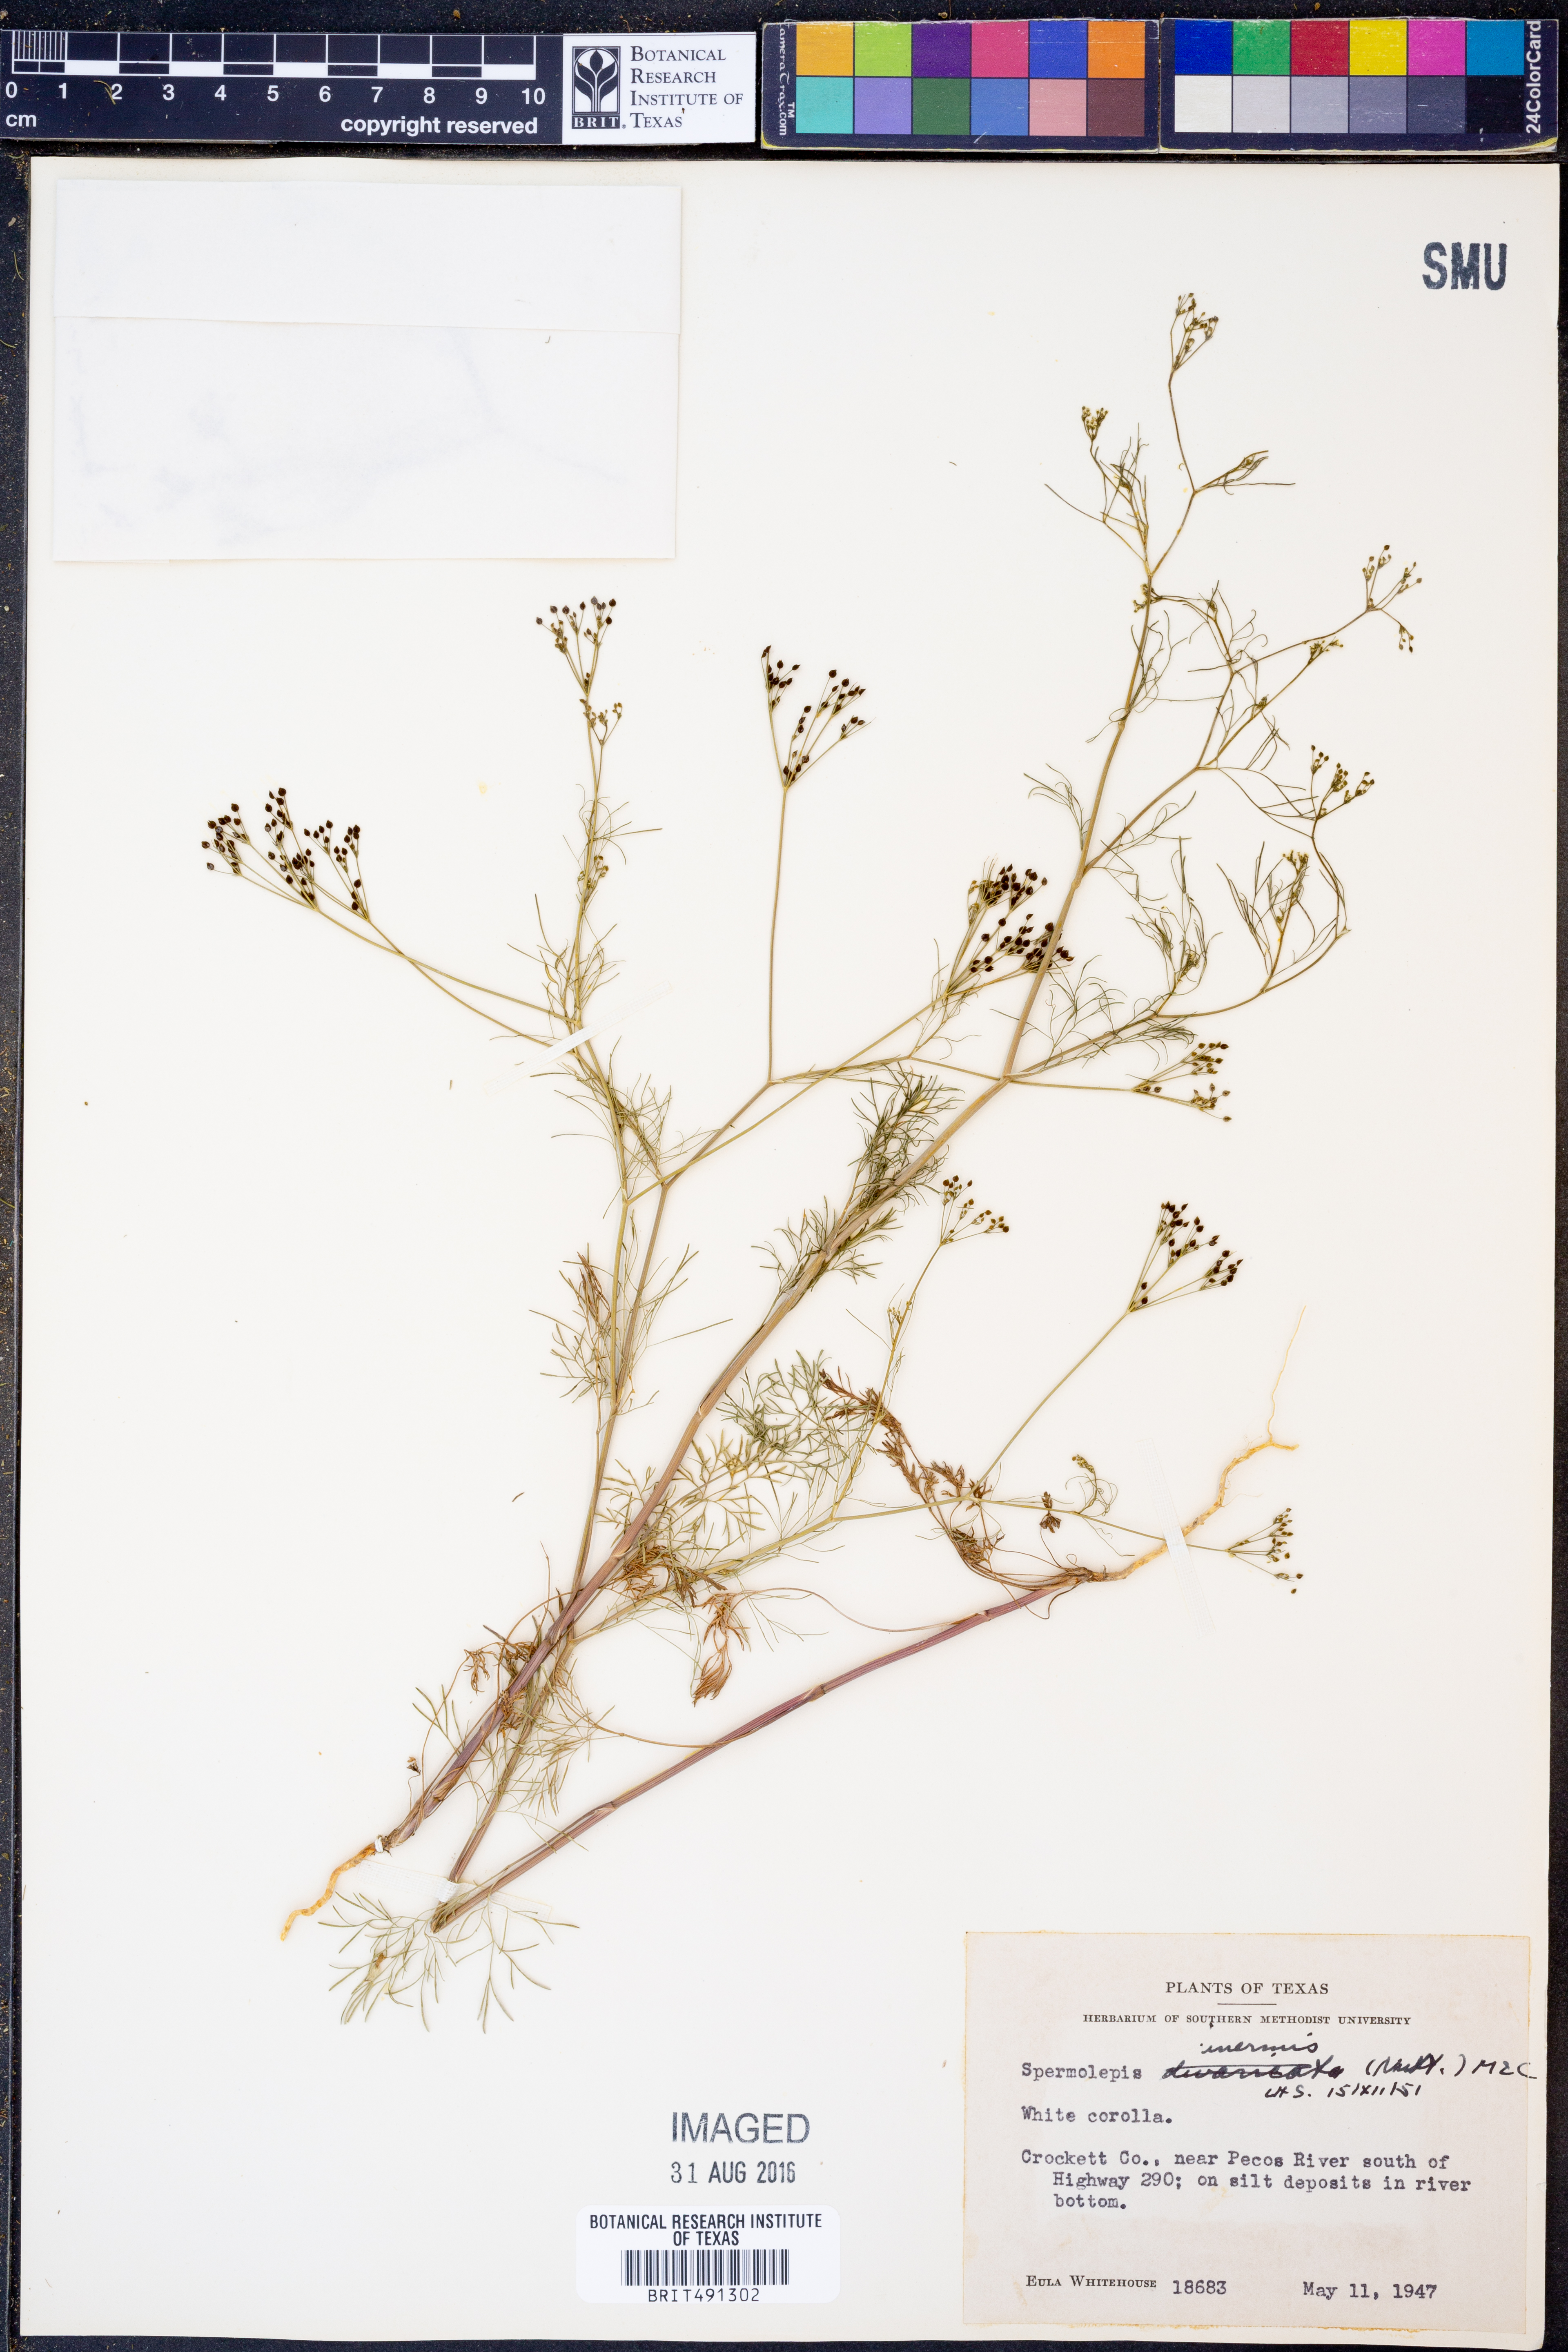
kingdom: Plantae
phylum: Tracheophyta
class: Magnoliopsida
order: Apiales
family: Apiaceae
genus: Spermolepis
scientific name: Spermolepis inermis
